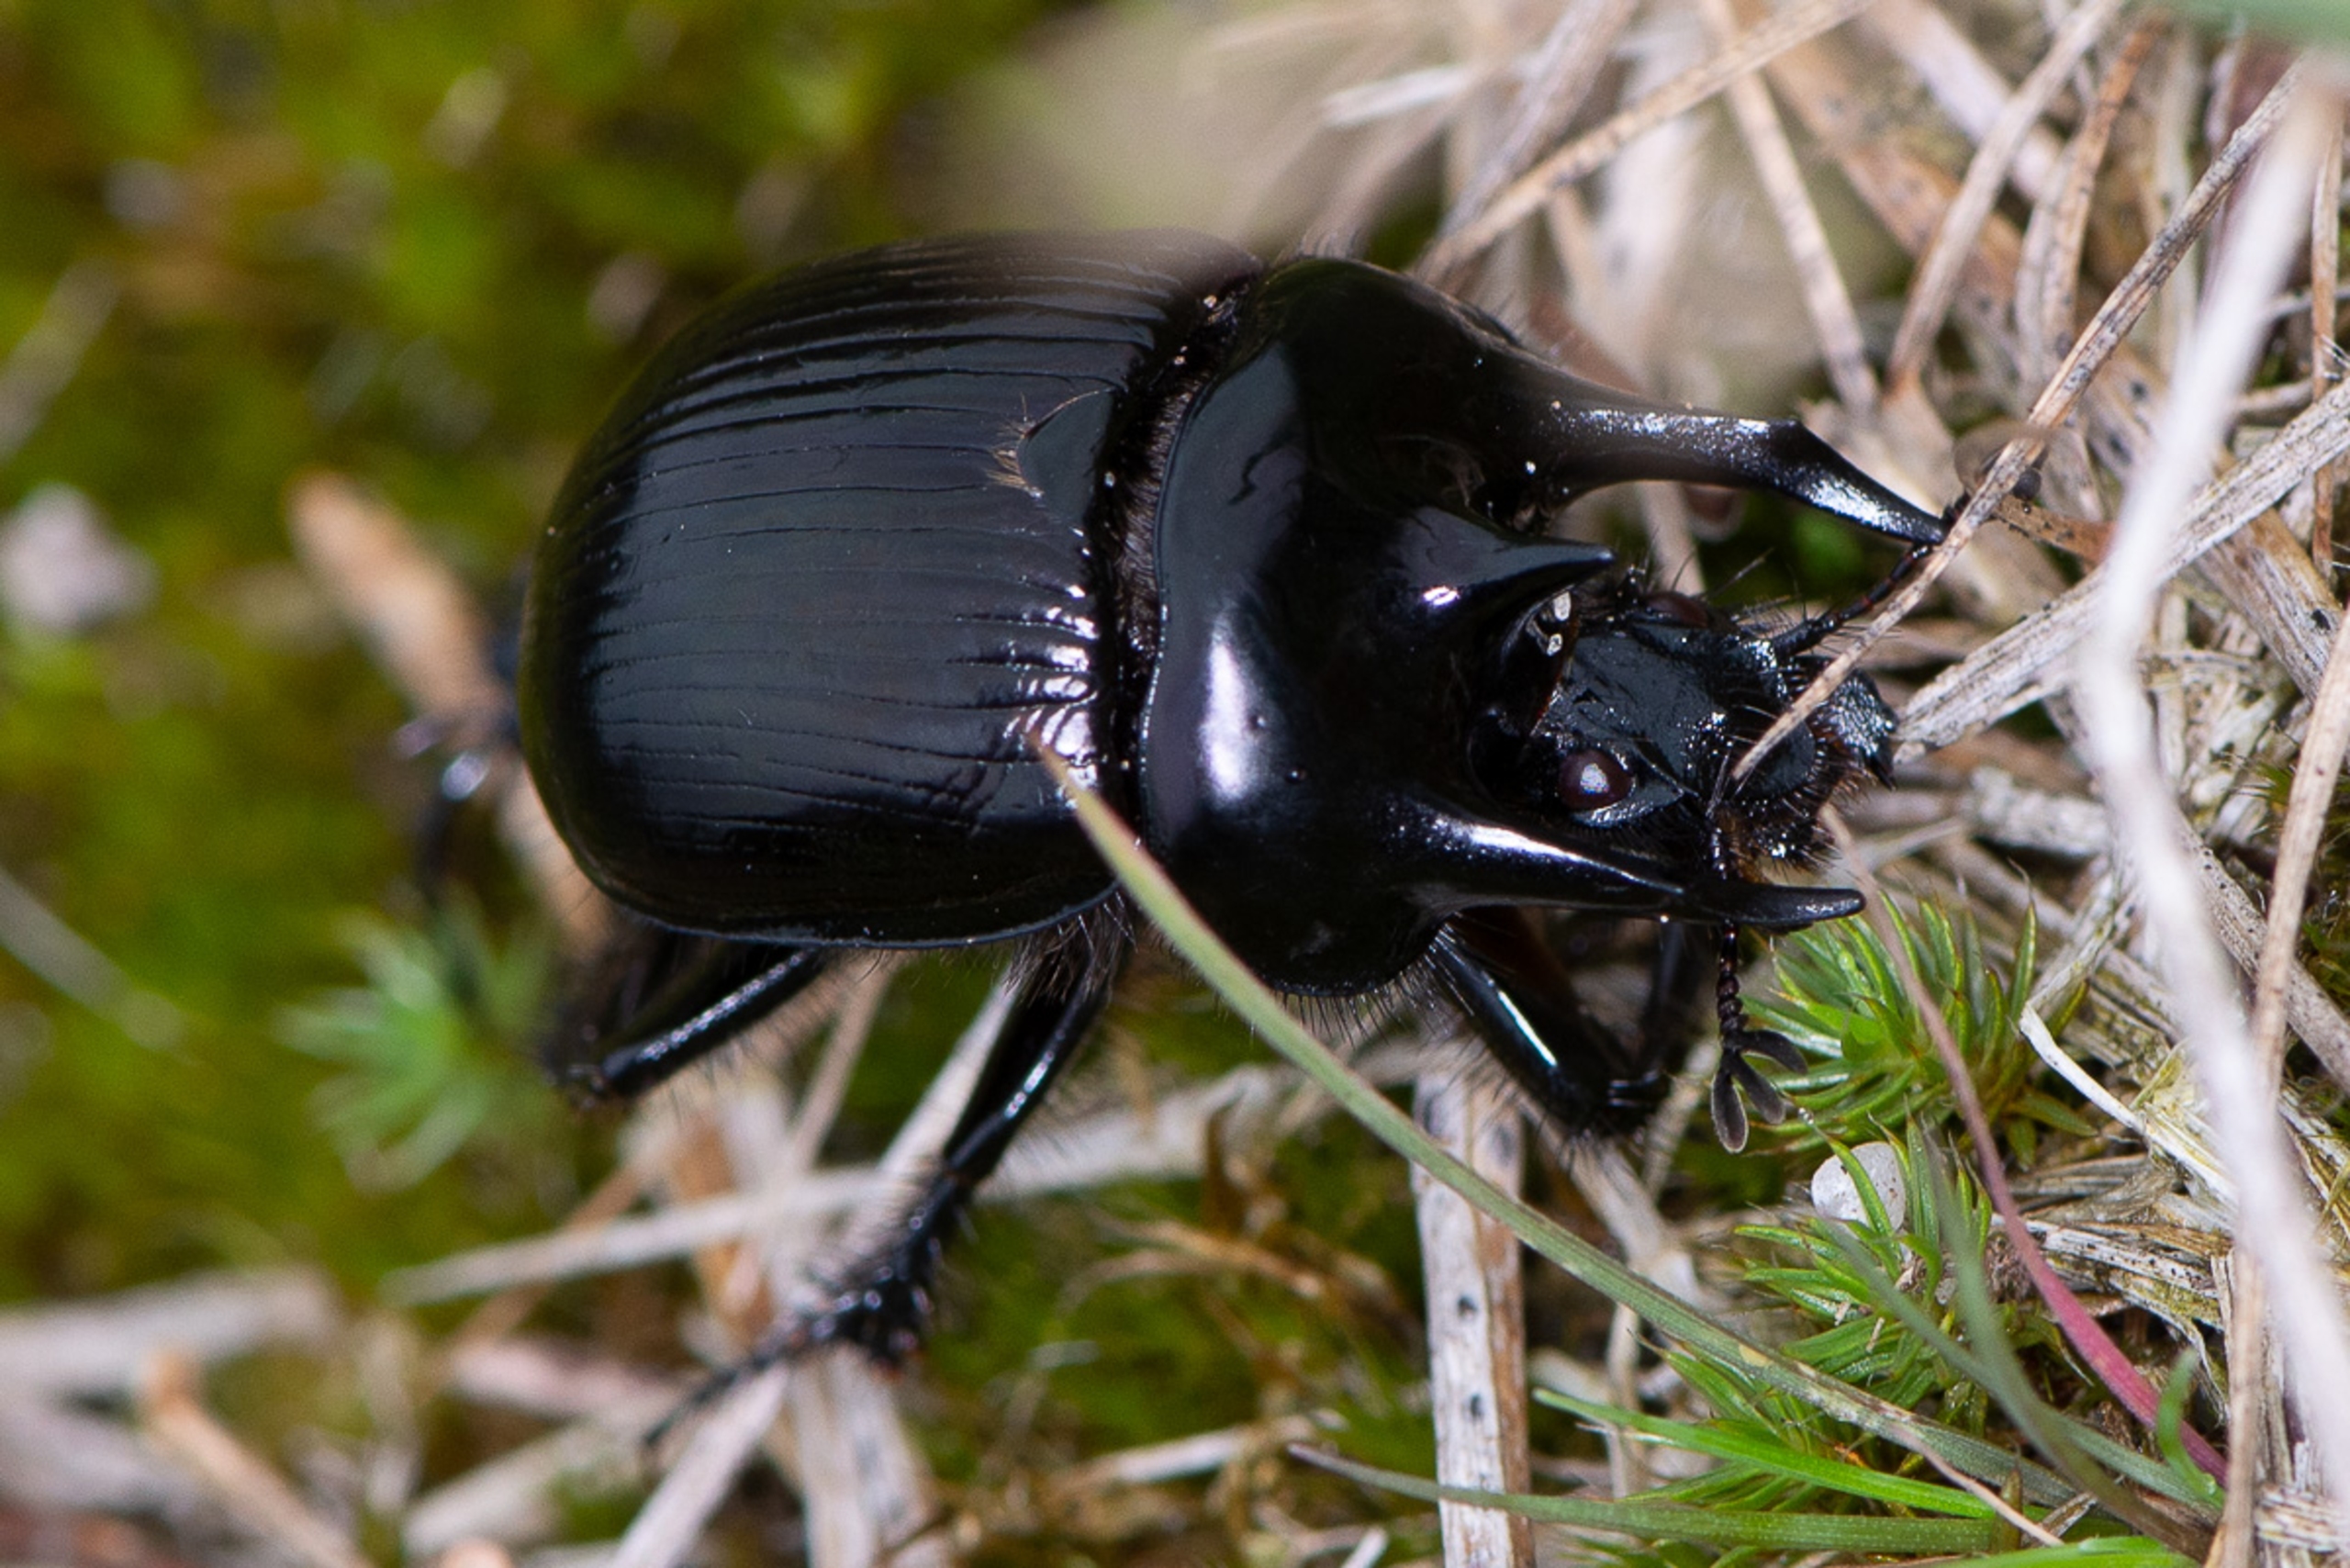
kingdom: Animalia
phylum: Arthropoda
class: Insecta
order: Coleoptera
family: Geotrupidae
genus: Typhaeus
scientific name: Typhaeus typhoeus
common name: Trehornet skarnbasse
